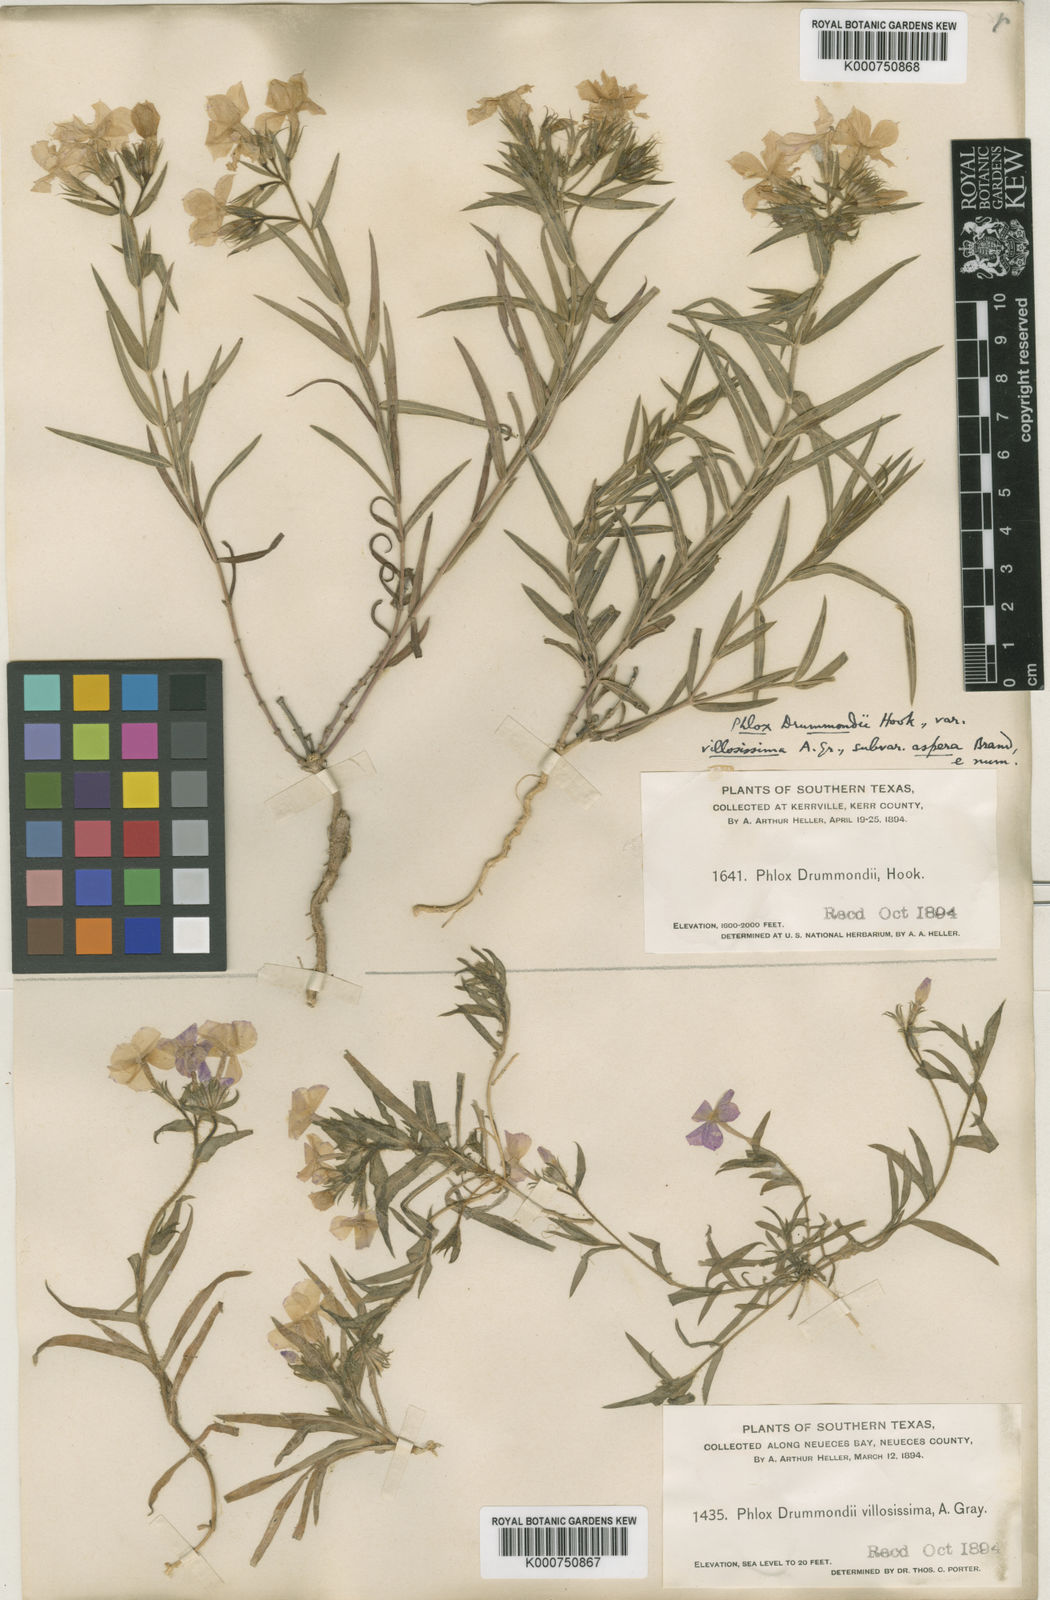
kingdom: Plantae
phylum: Tracheophyta
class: Magnoliopsida
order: Ericales
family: Polemoniaceae
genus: Phlox
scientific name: Phlox drummondii
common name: Drummond's phlox
